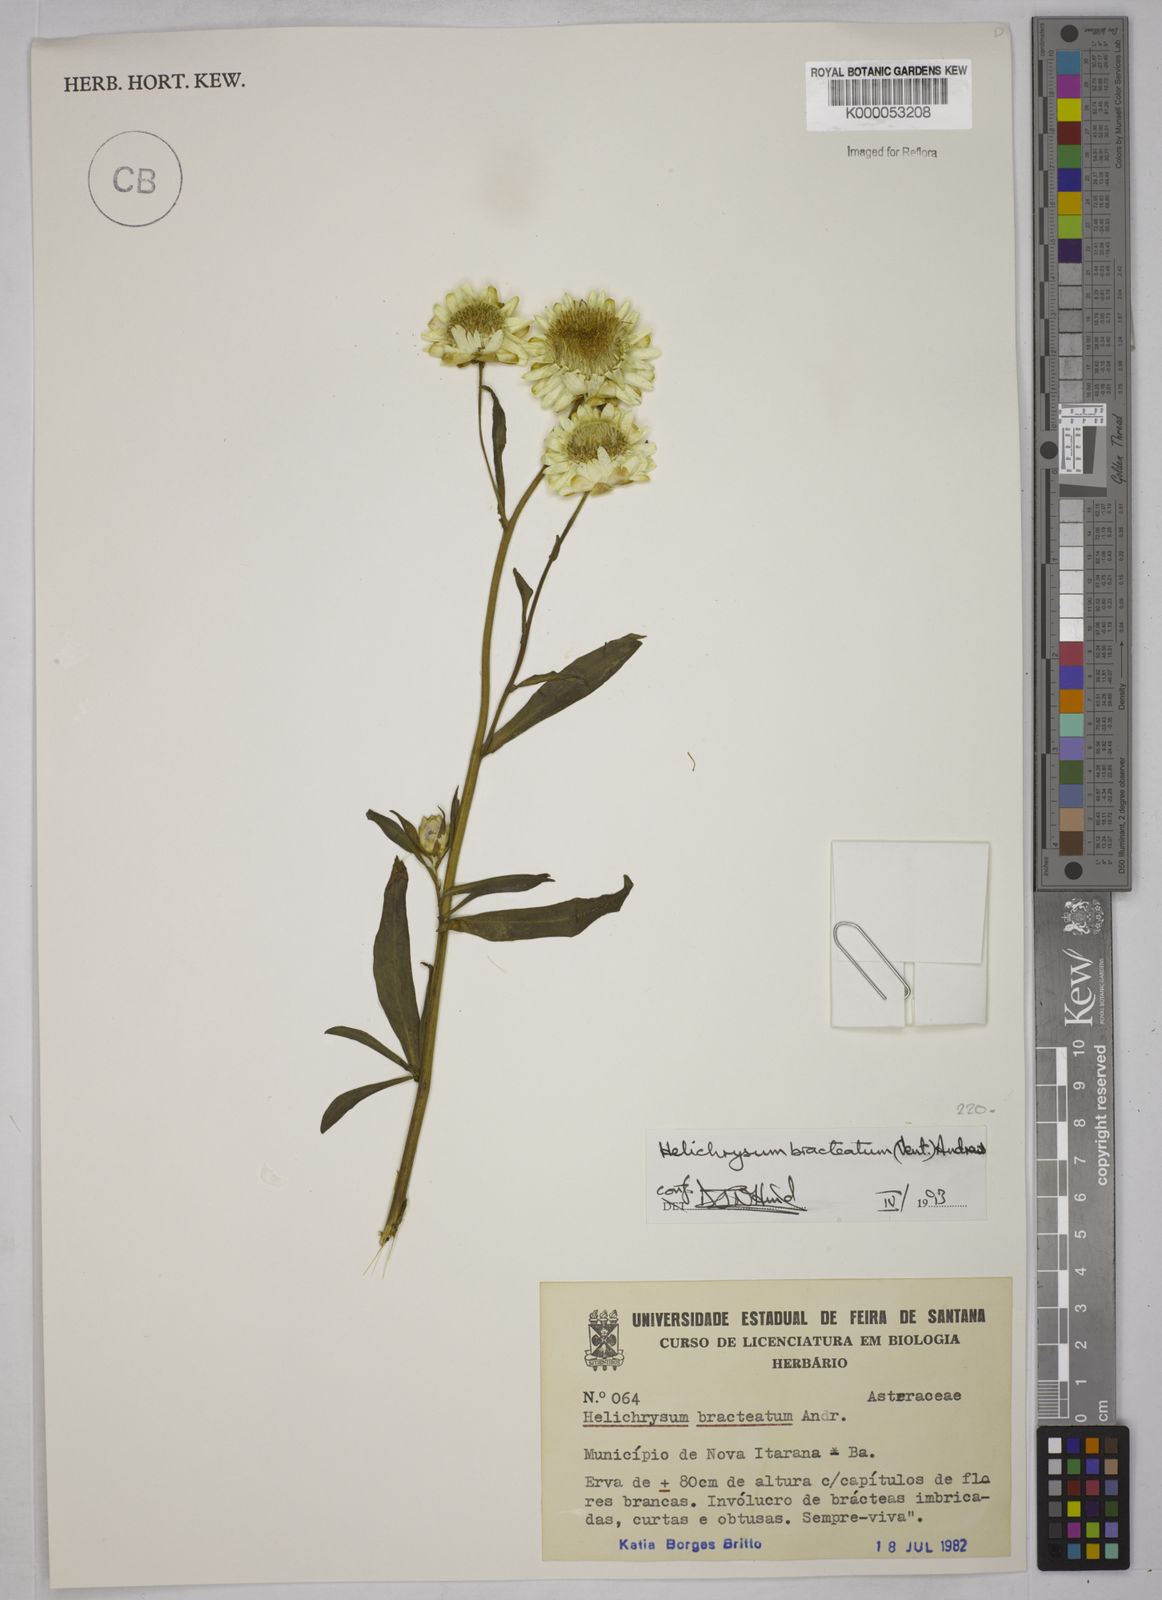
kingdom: Plantae
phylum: Tracheophyta
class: Magnoliopsida
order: Asterales
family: Asteraceae
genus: Xerochrysum
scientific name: Xerochrysum bracteatum
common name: Bracted strawflower
